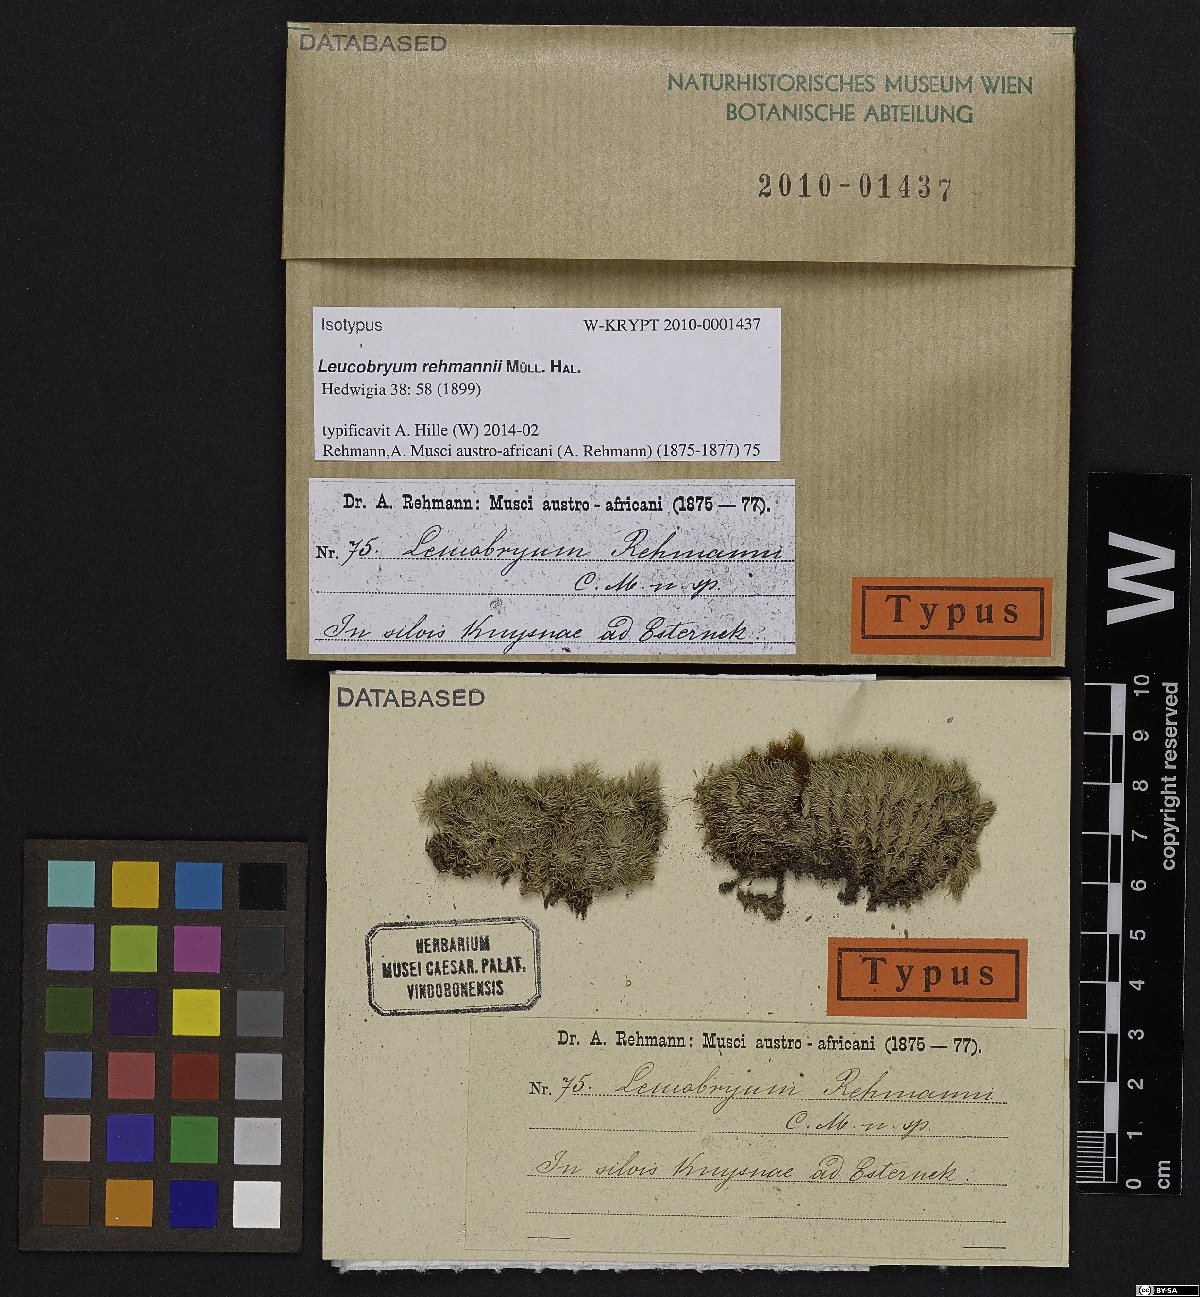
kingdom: Plantae
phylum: Bryophyta
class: Bryopsida
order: Dicranales
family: Leucobryaceae
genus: Leucobryum
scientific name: Leucobryum rehmannii
